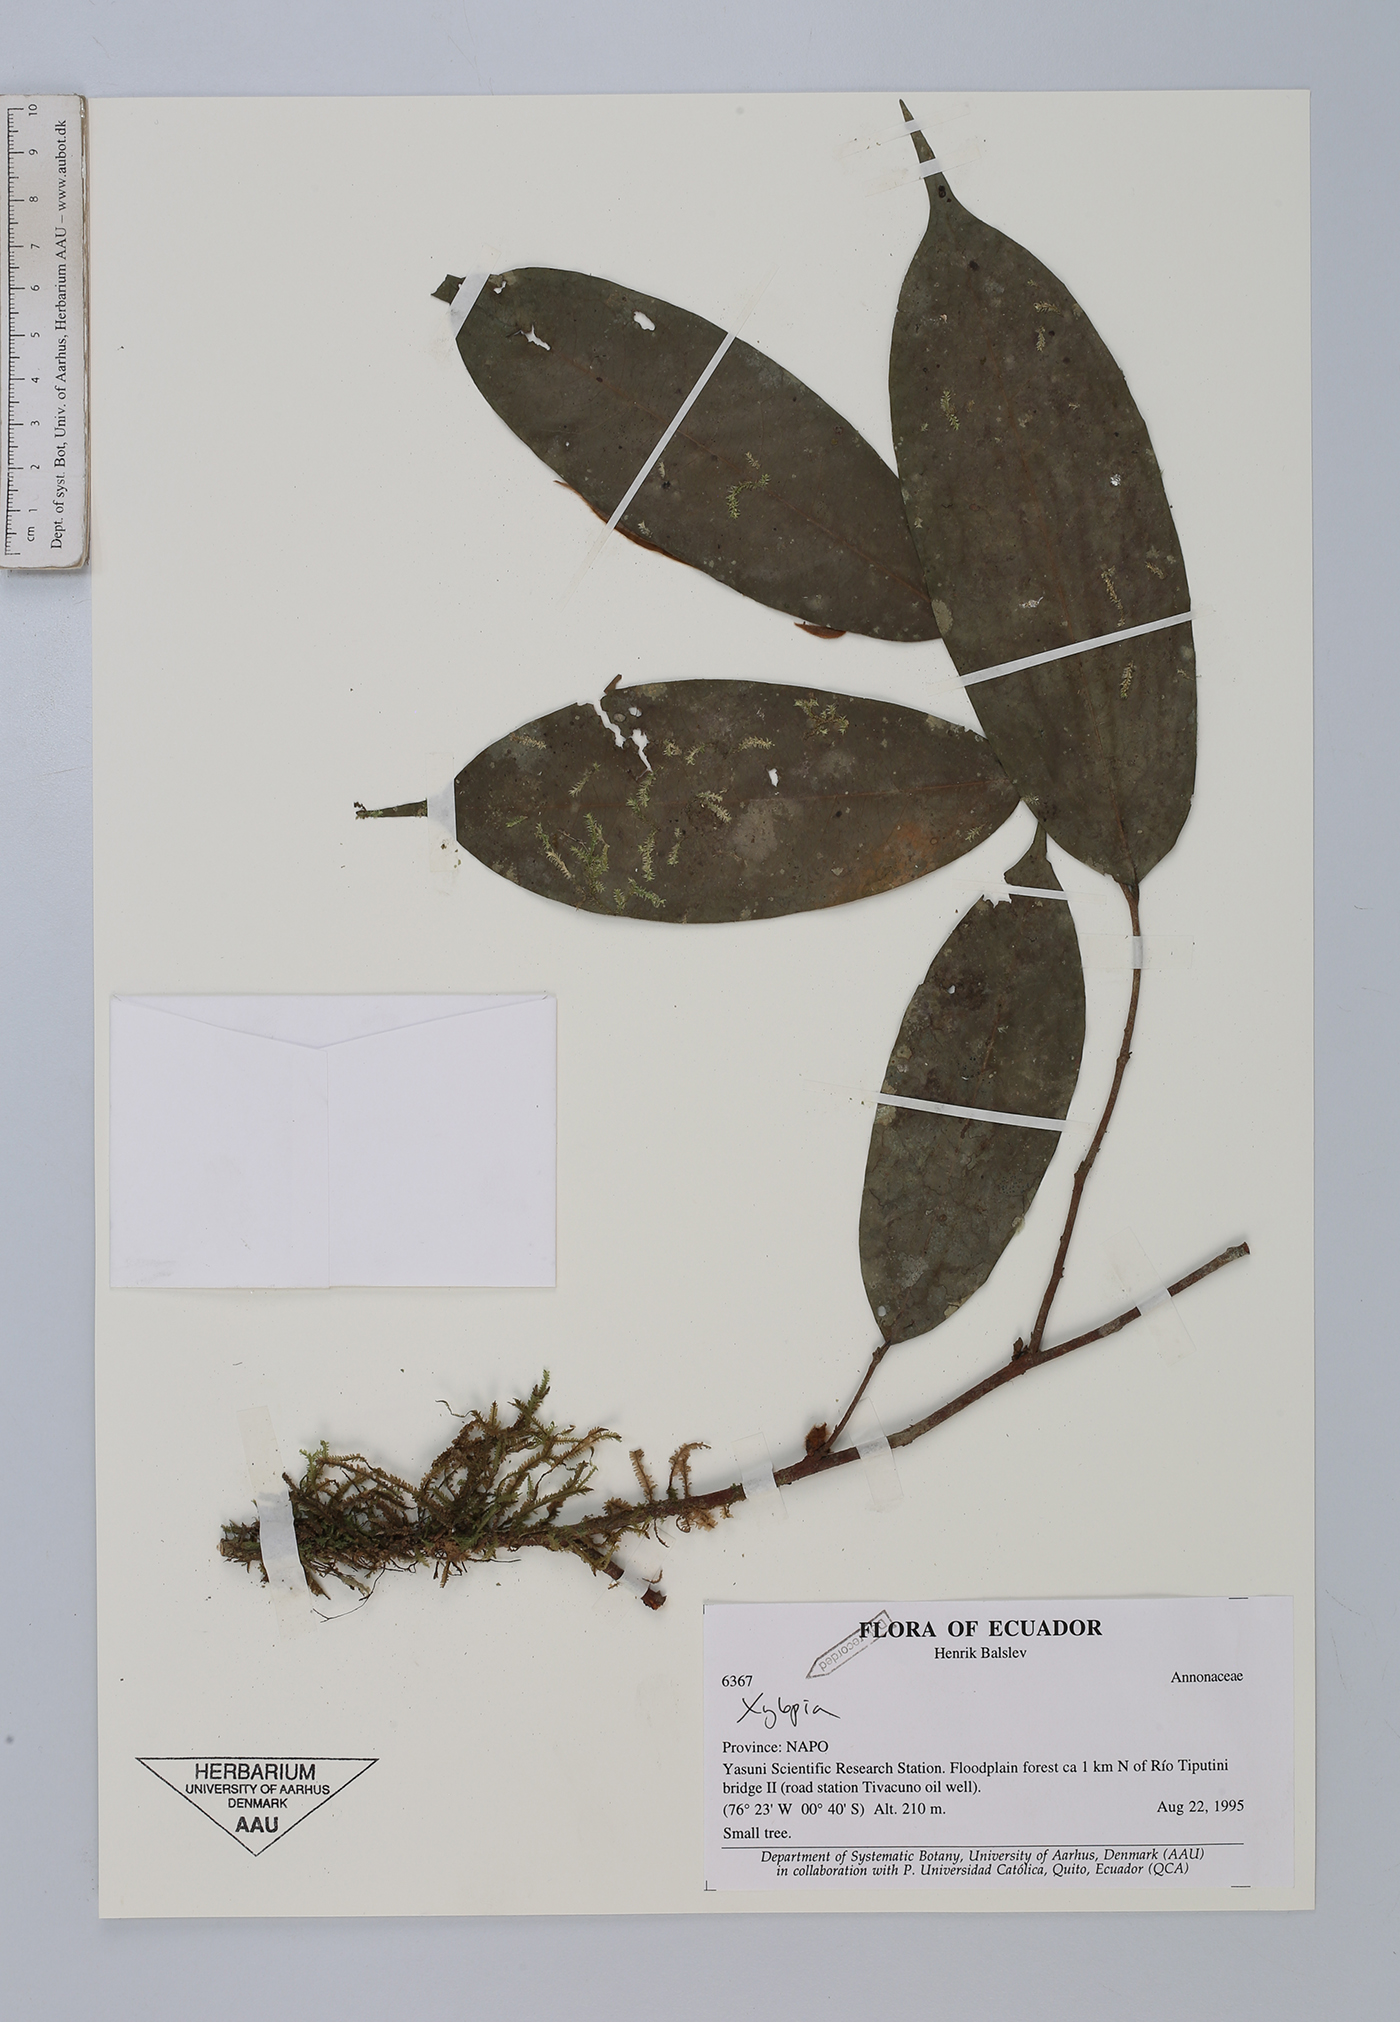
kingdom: Plantae
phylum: Tracheophyta
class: Magnoliopsida
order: Magnoliales
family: Annonaceae
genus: Xylopia
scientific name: Xylopia
